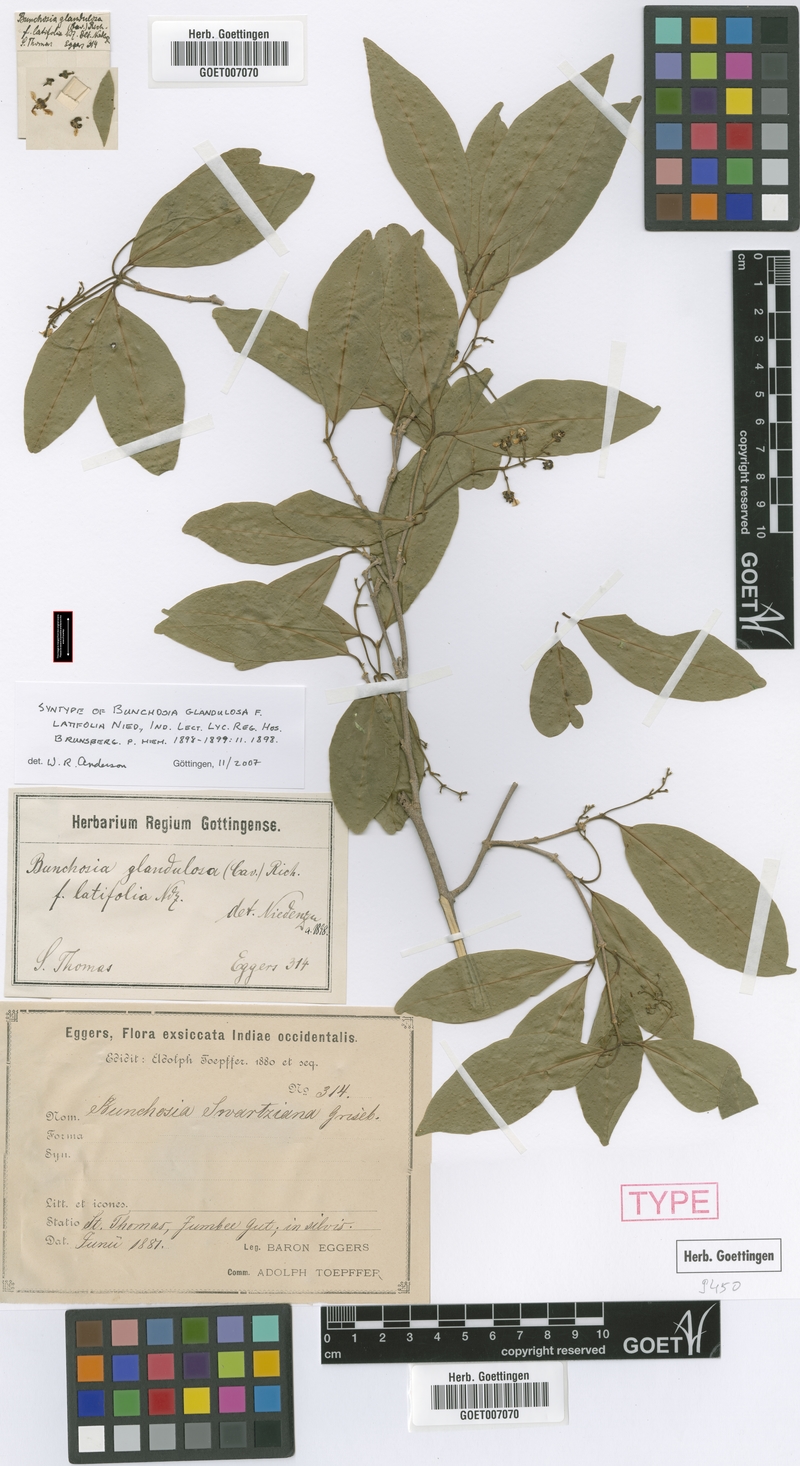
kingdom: Plantae
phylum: Tracheophyta
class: Magnoliopsida
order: Malpighiales
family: Malpighiaceae
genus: Bunchosia
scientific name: Bunchosia glandulosa
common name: Cafe forastero
